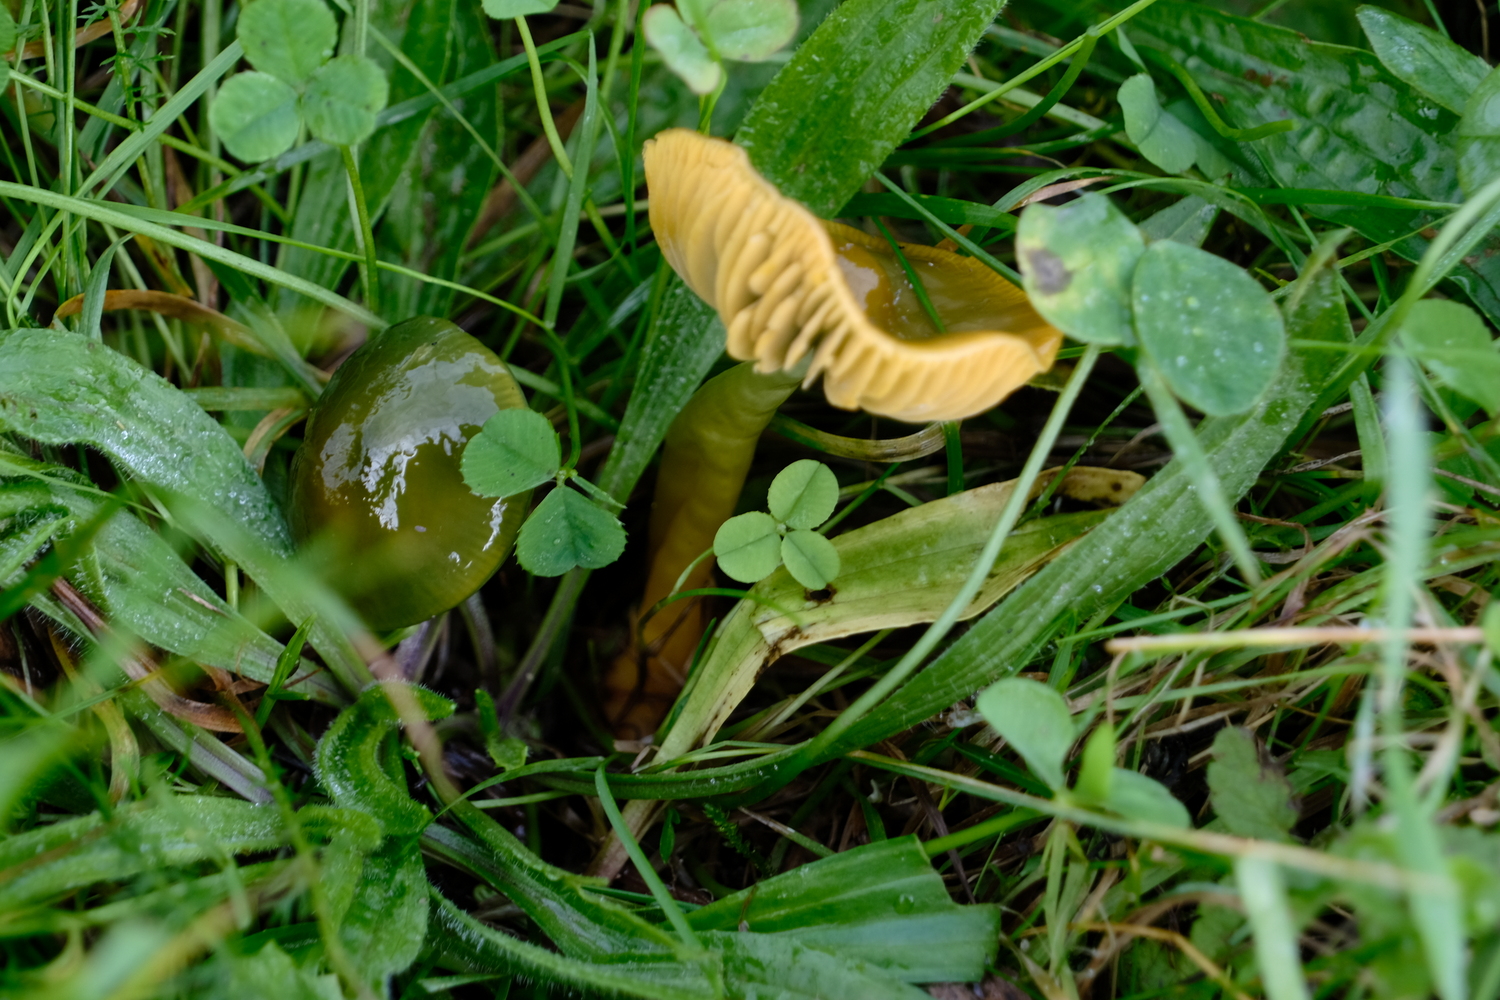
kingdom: Fungi
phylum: Basidiomycota
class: Agaricomycetes
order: Agaricales
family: Hygrophoraceae
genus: Gliophorus
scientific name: Gliophorus psittacinus
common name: papegøje-vokshat
